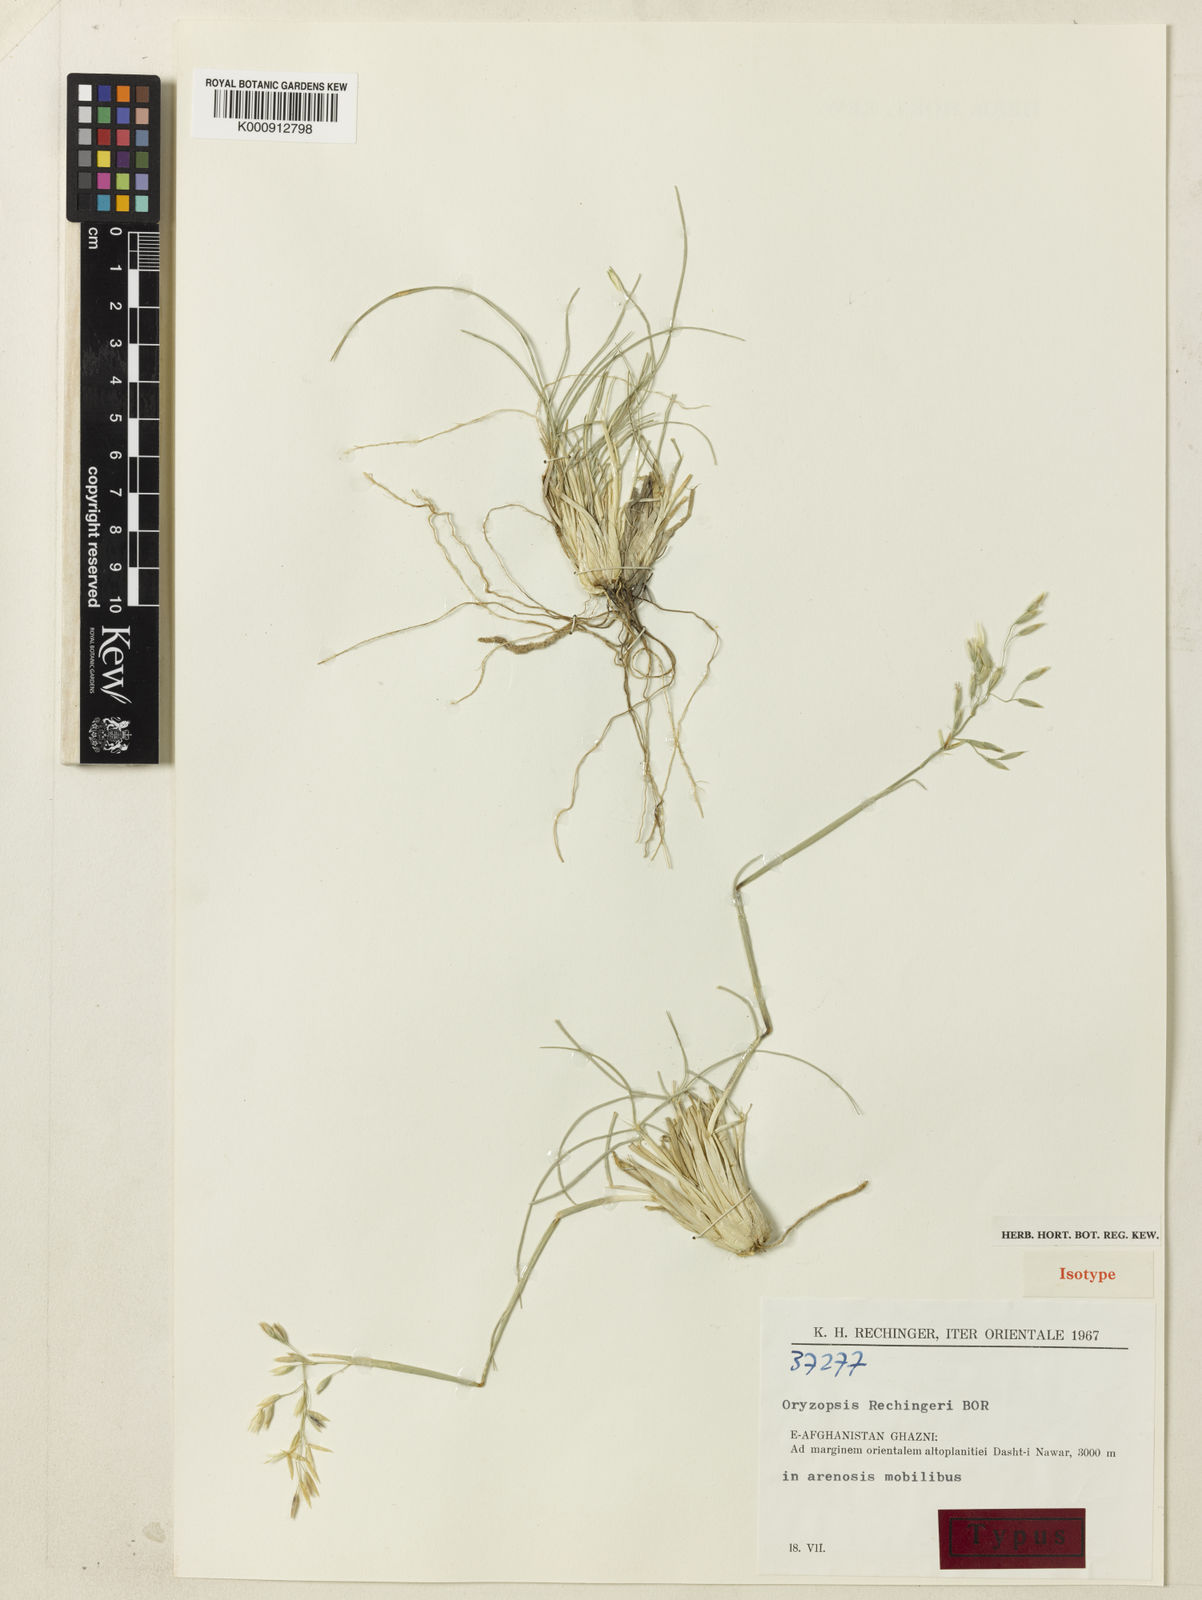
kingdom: Plantae
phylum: Tracheophyta
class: Liliopsida
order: Poales
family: Poaceae
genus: Piptatherum
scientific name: Piptatherum rechingeri
